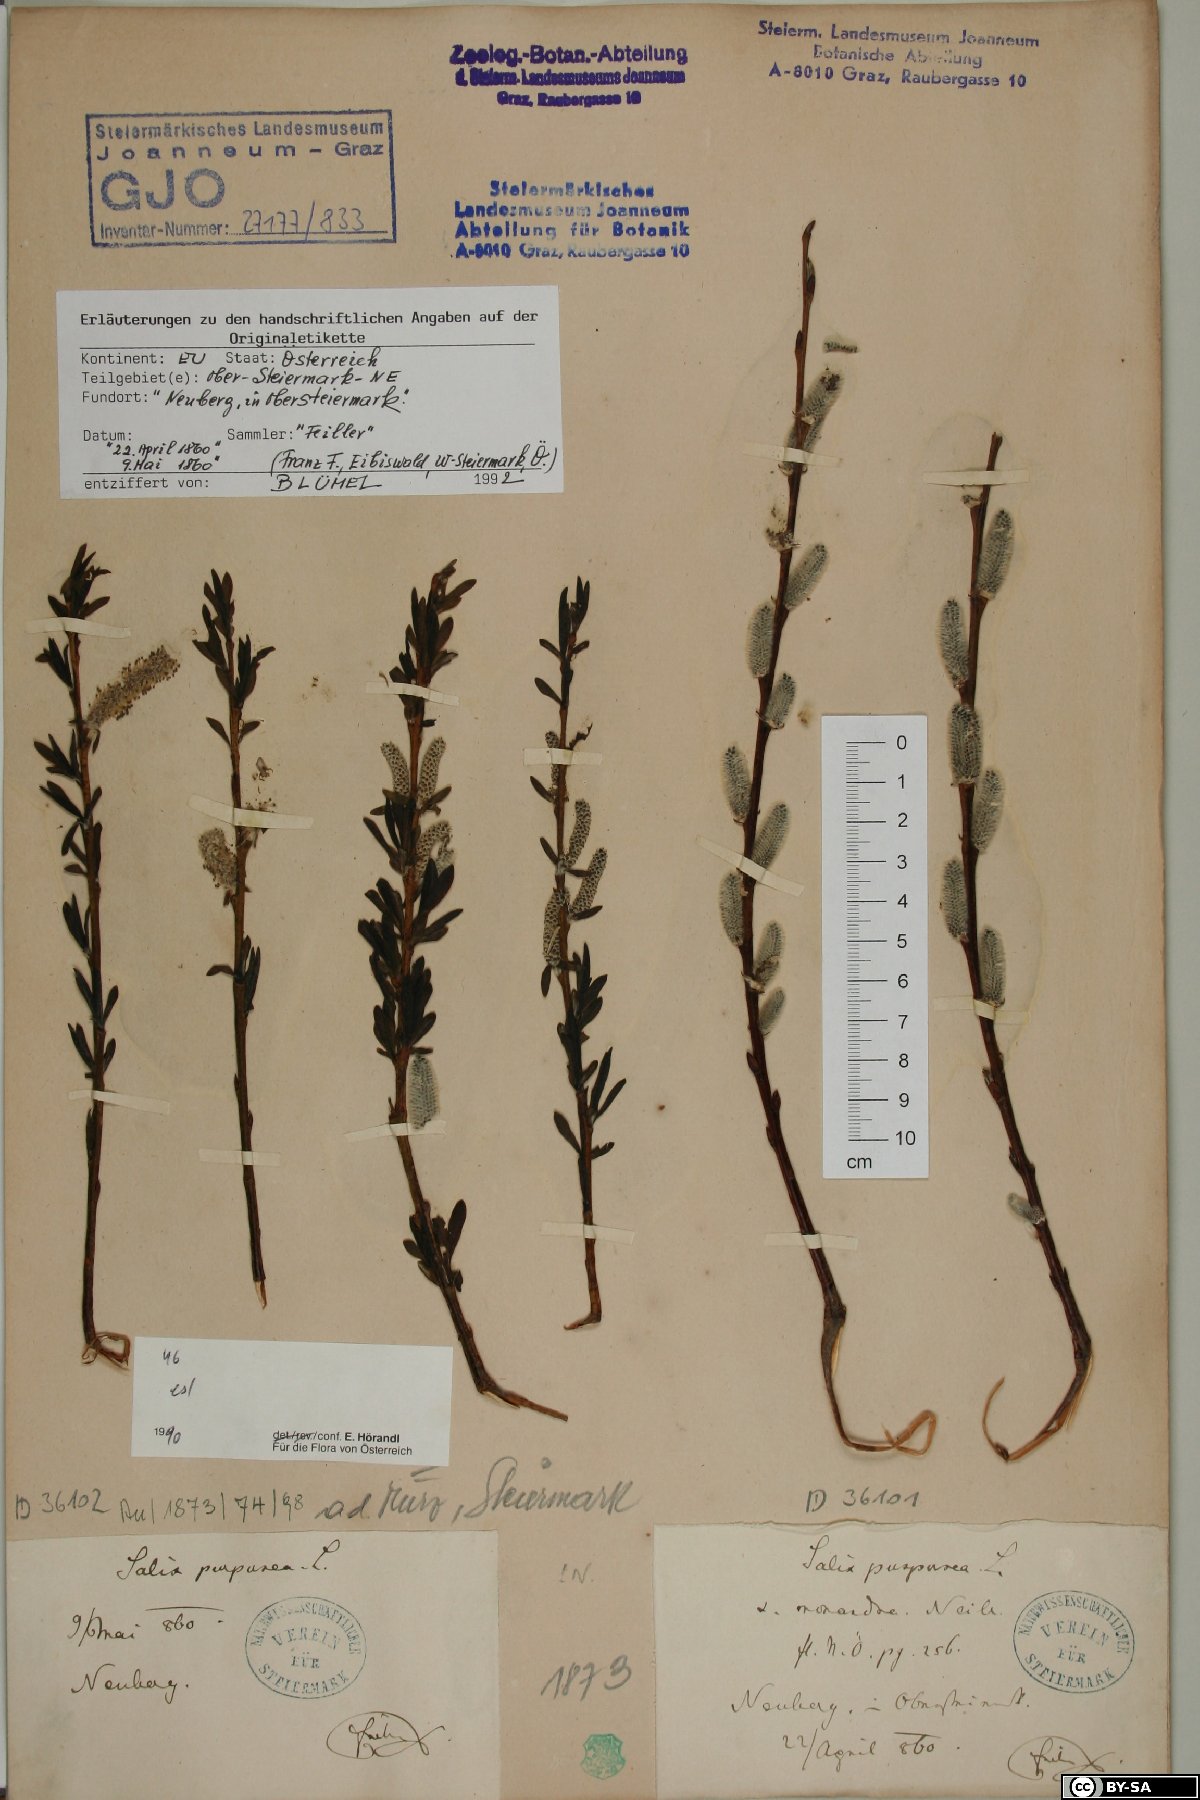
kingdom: Plantae
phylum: Tracheophyta
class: Magnoliopsida
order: Malpighiales
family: Salicaceae
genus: Salix
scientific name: Salix purpurea
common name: Purple willow
